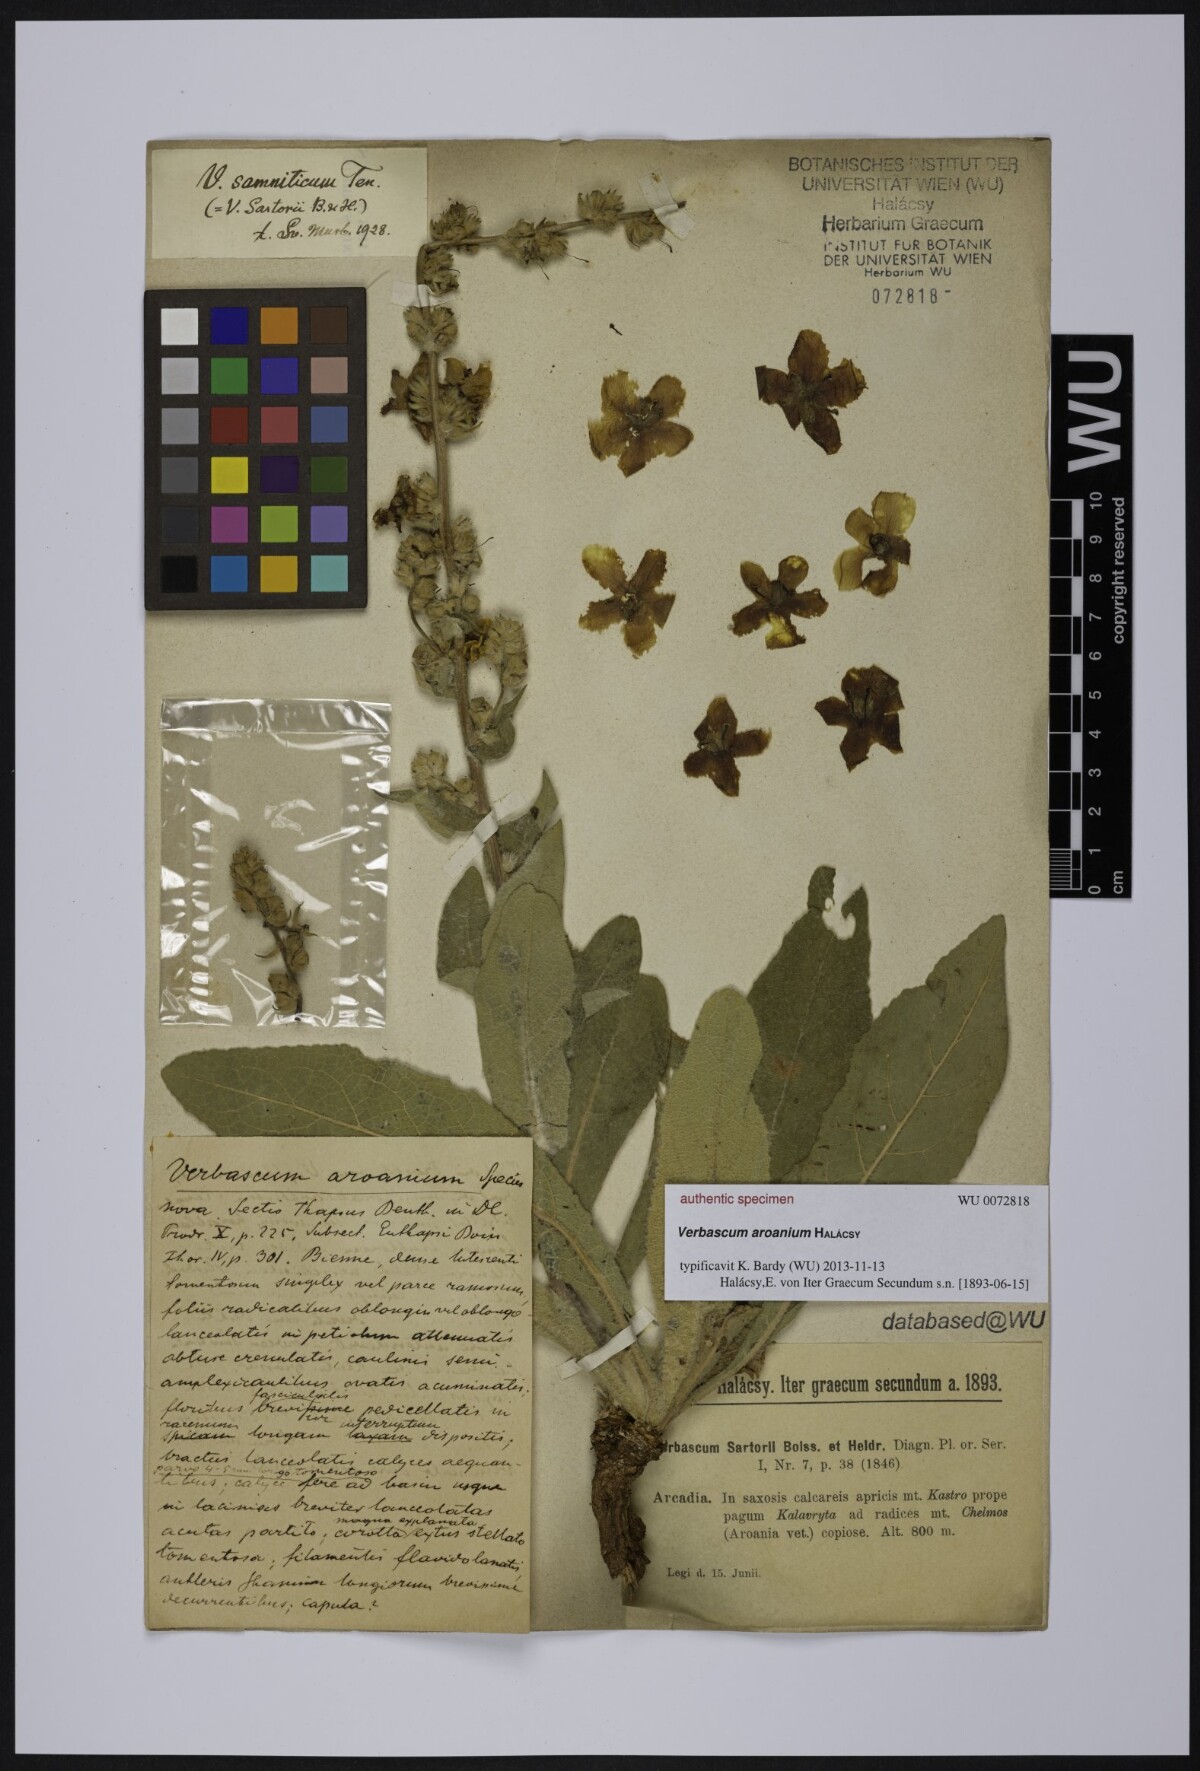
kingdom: Plantae
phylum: Tracheophyta
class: Magnoliopsida
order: Lamiales
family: Scrophulariaceae
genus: Verbascum
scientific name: Verbascum
